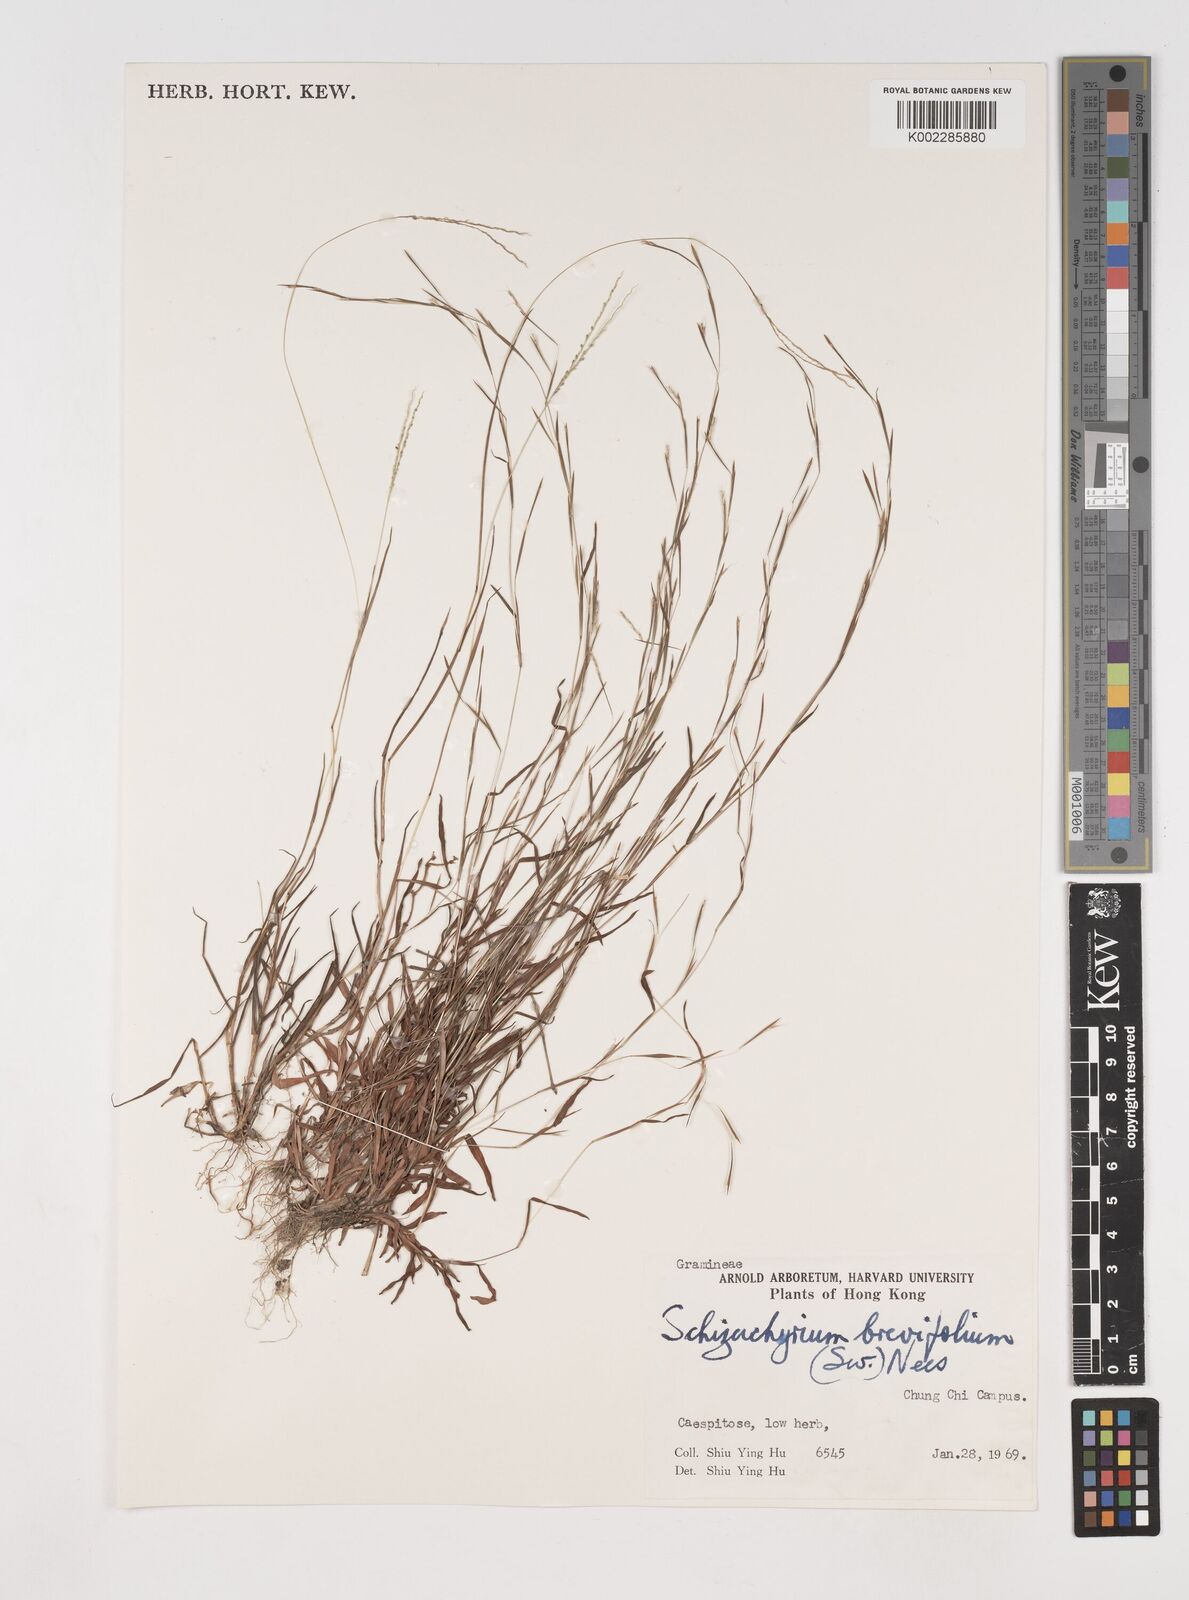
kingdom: Plantae
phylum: Tracheophyta
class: Liliopsida
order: Poales
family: Poaceae
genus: Schizachyrium
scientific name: Schizachyrium brevifolium
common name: Serillo dulce
